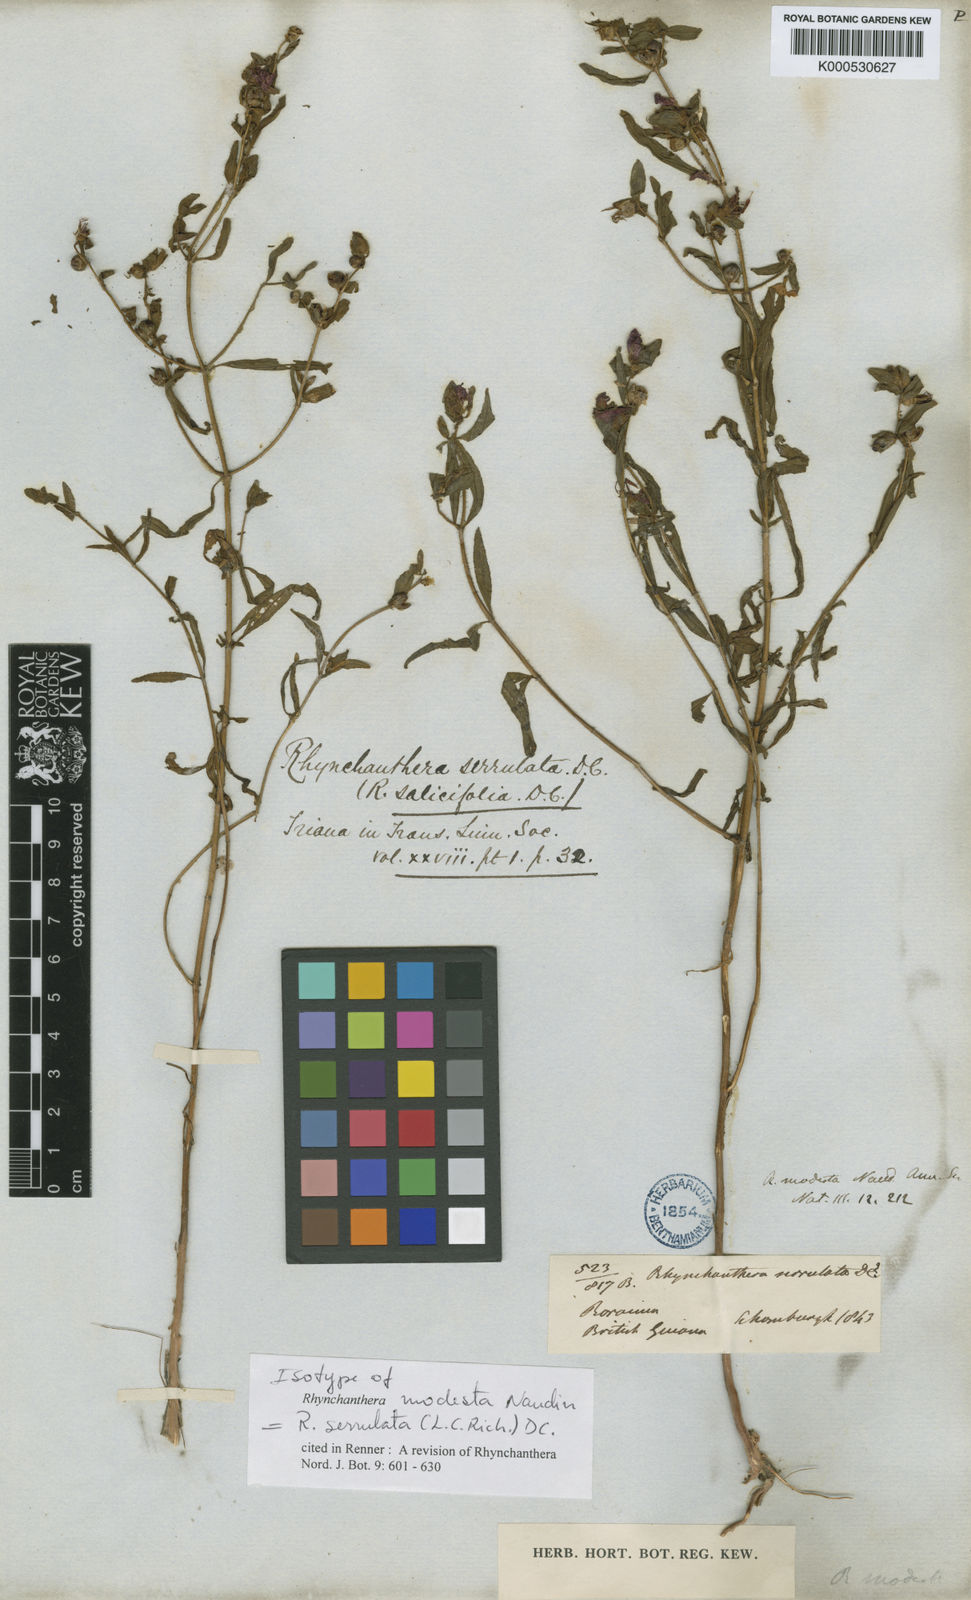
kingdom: Plantae
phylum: Tracheophyta
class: Magnoliopsida
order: Myrtales
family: Melastomataceae
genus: Rhynchanthera
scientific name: Rhynchanthera serrulata
